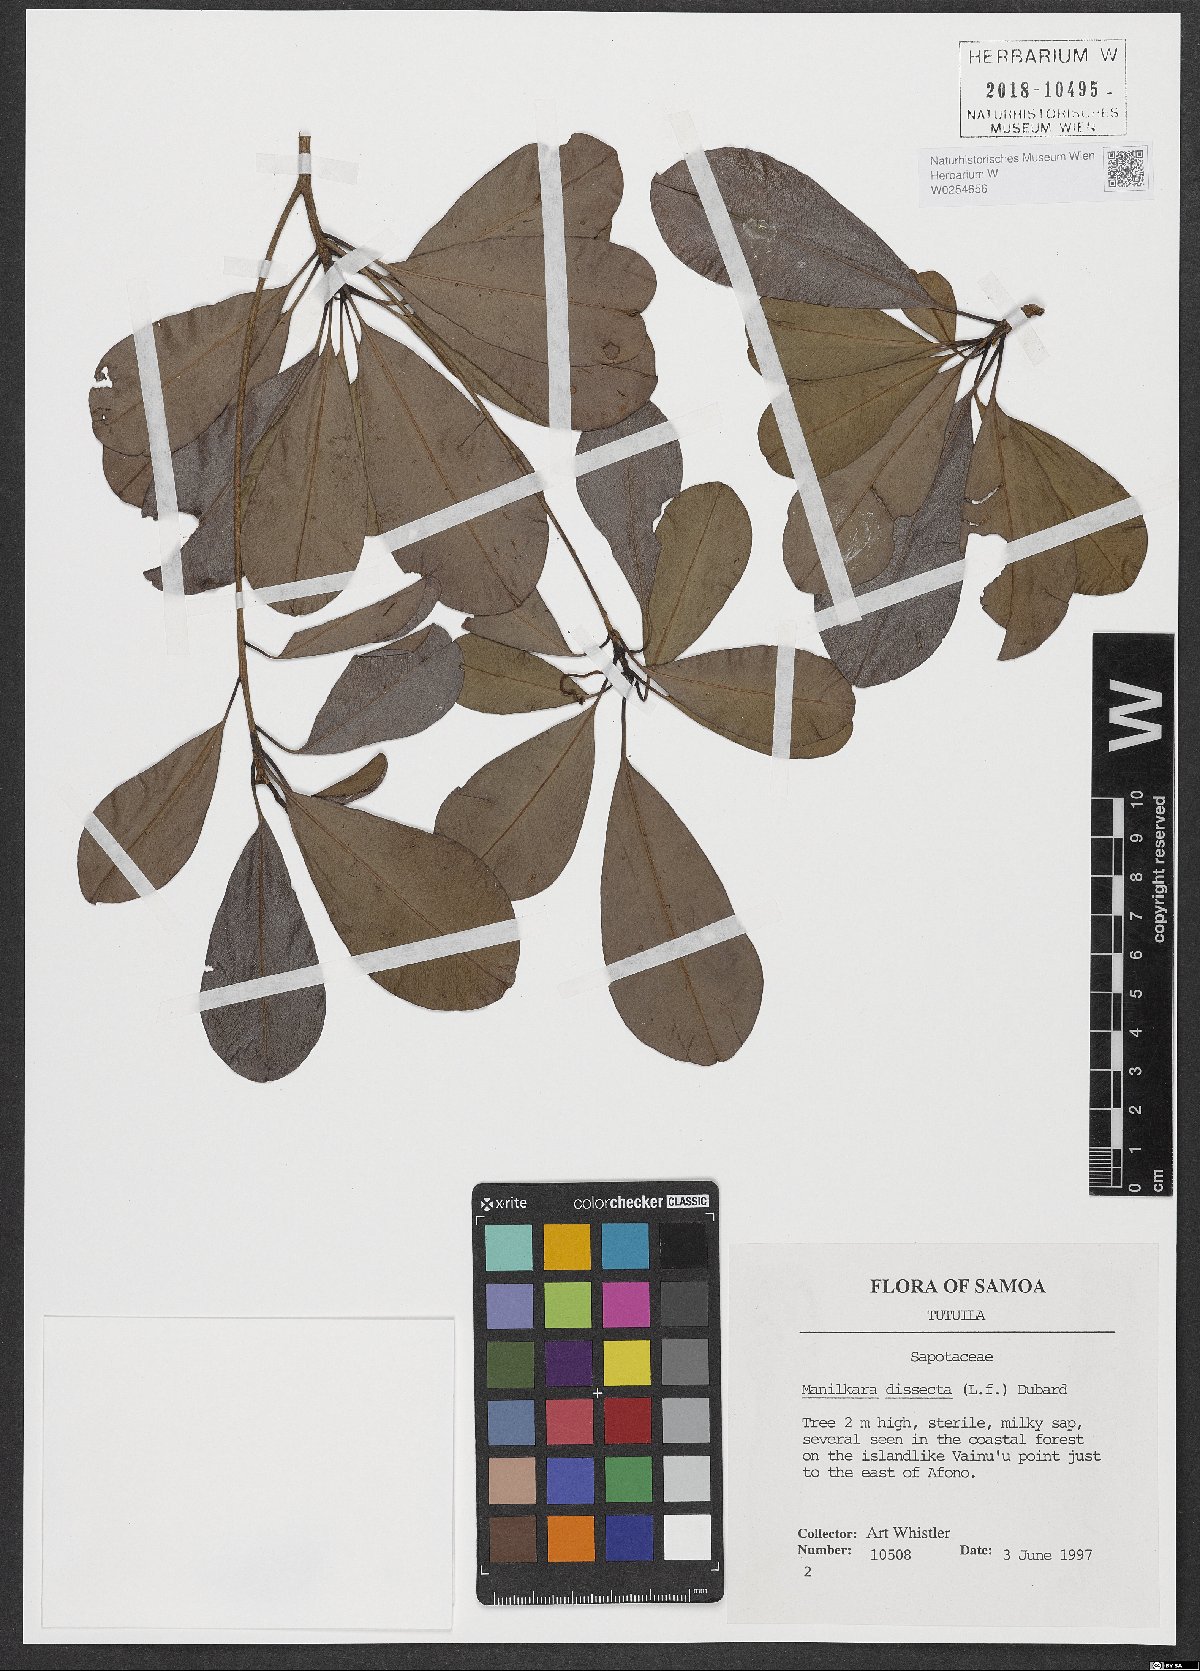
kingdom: Plantae
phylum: Tracheophyta
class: Magnoliopsida
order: Ericales
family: Sapotaceae
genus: Manilkara
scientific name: Manilkara dissecta
